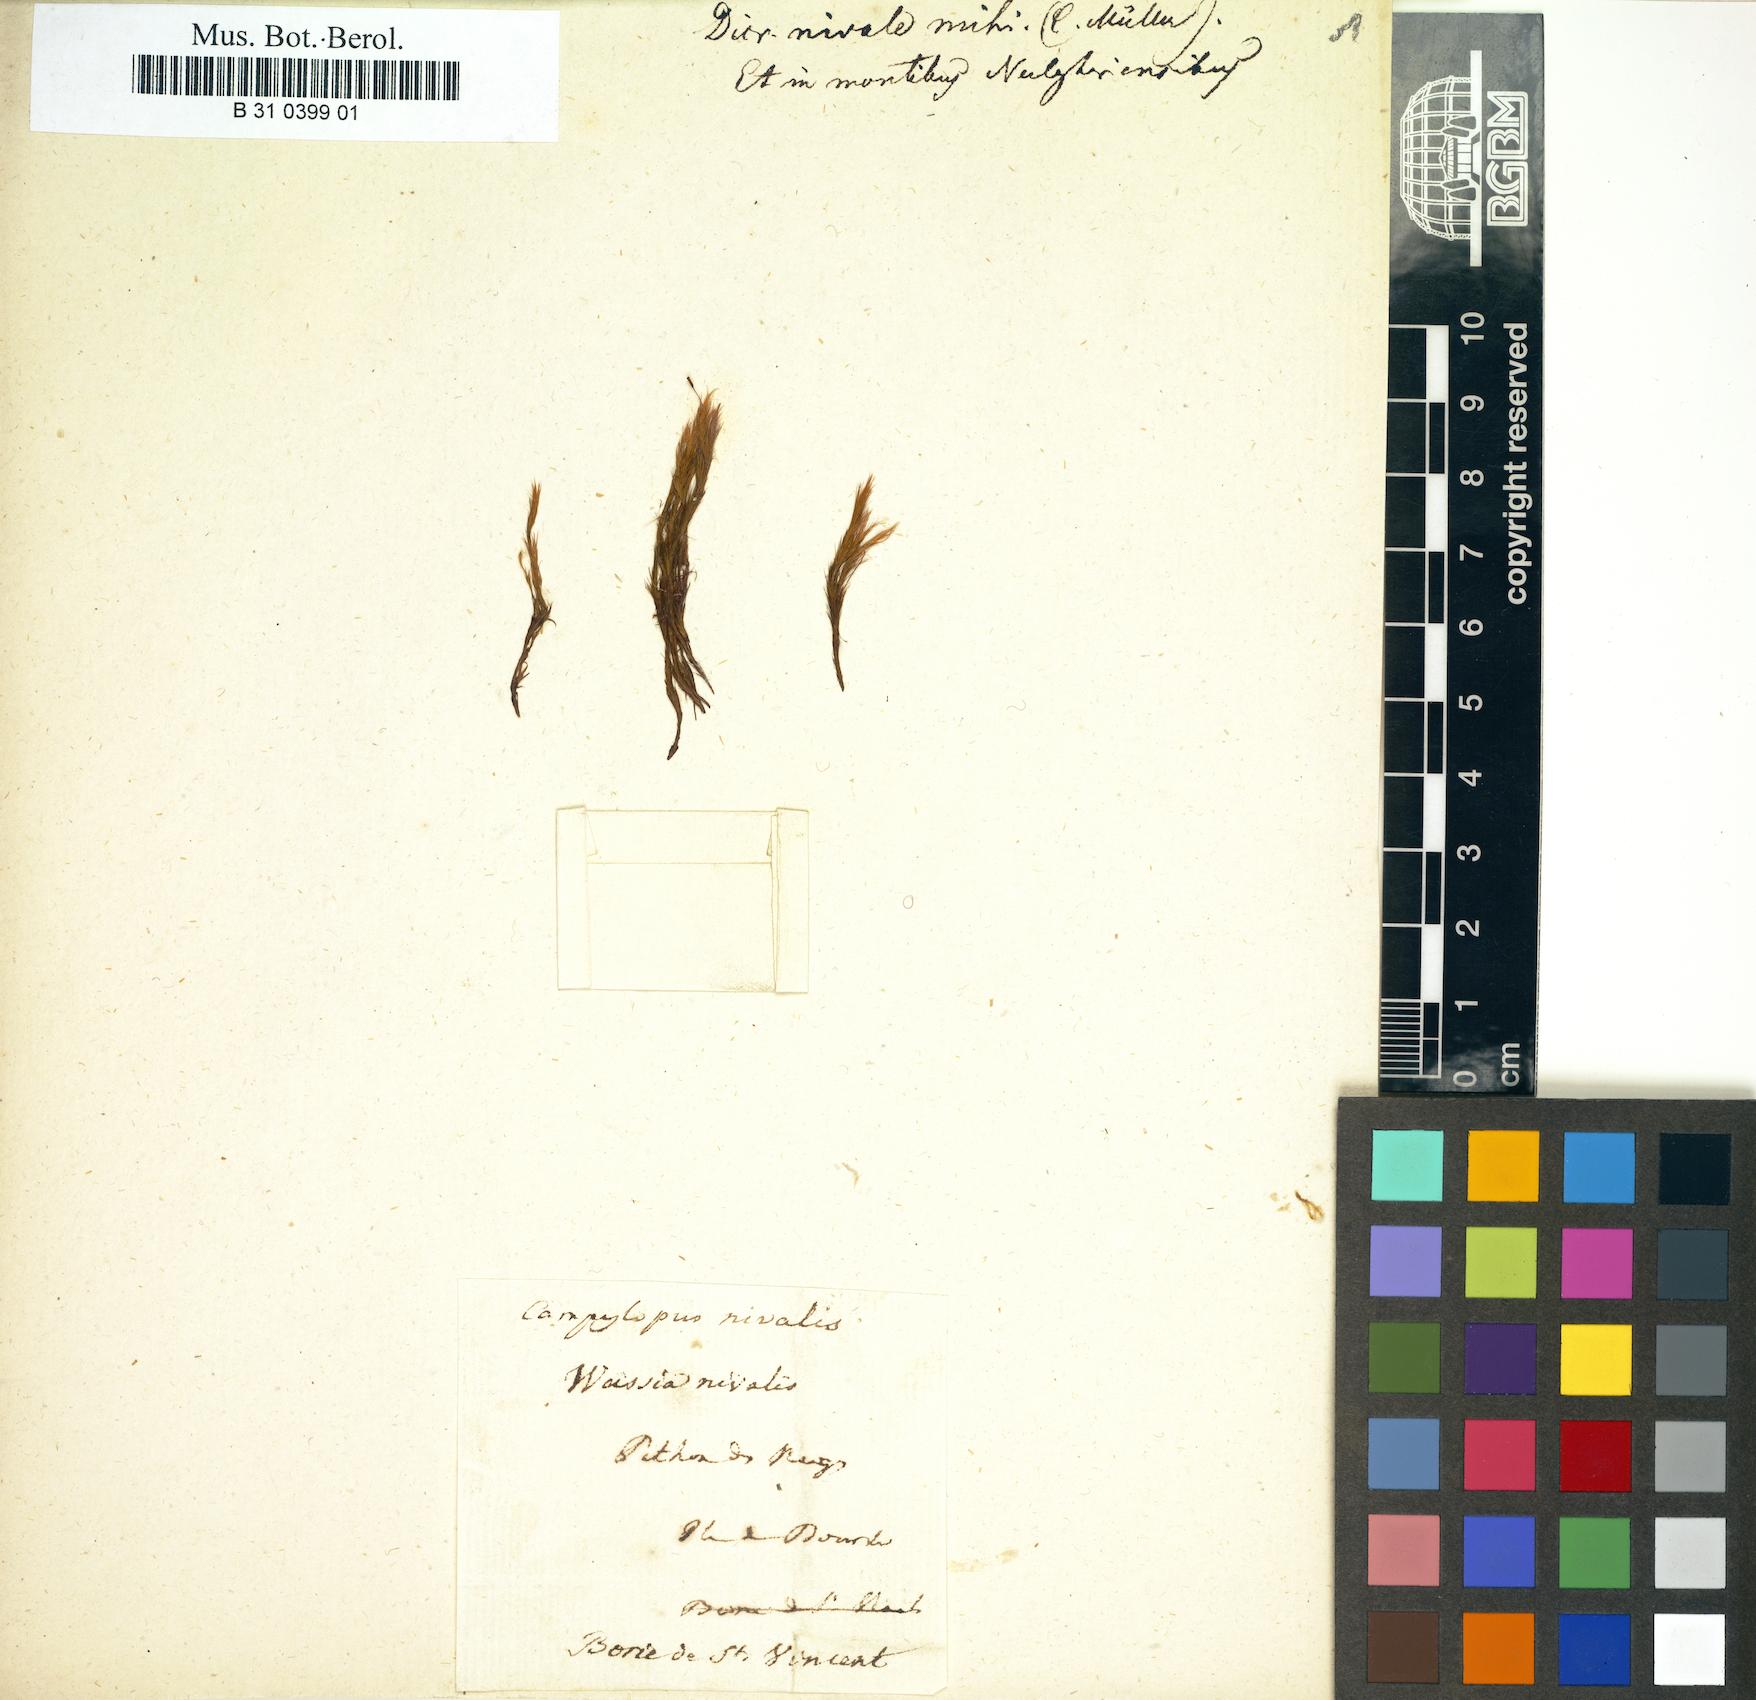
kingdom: Plantae
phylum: Bryophyta
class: Bryopsida
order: Dicranales
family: Leucobryaceae
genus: Campylopus
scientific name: Campylopus nivalis
